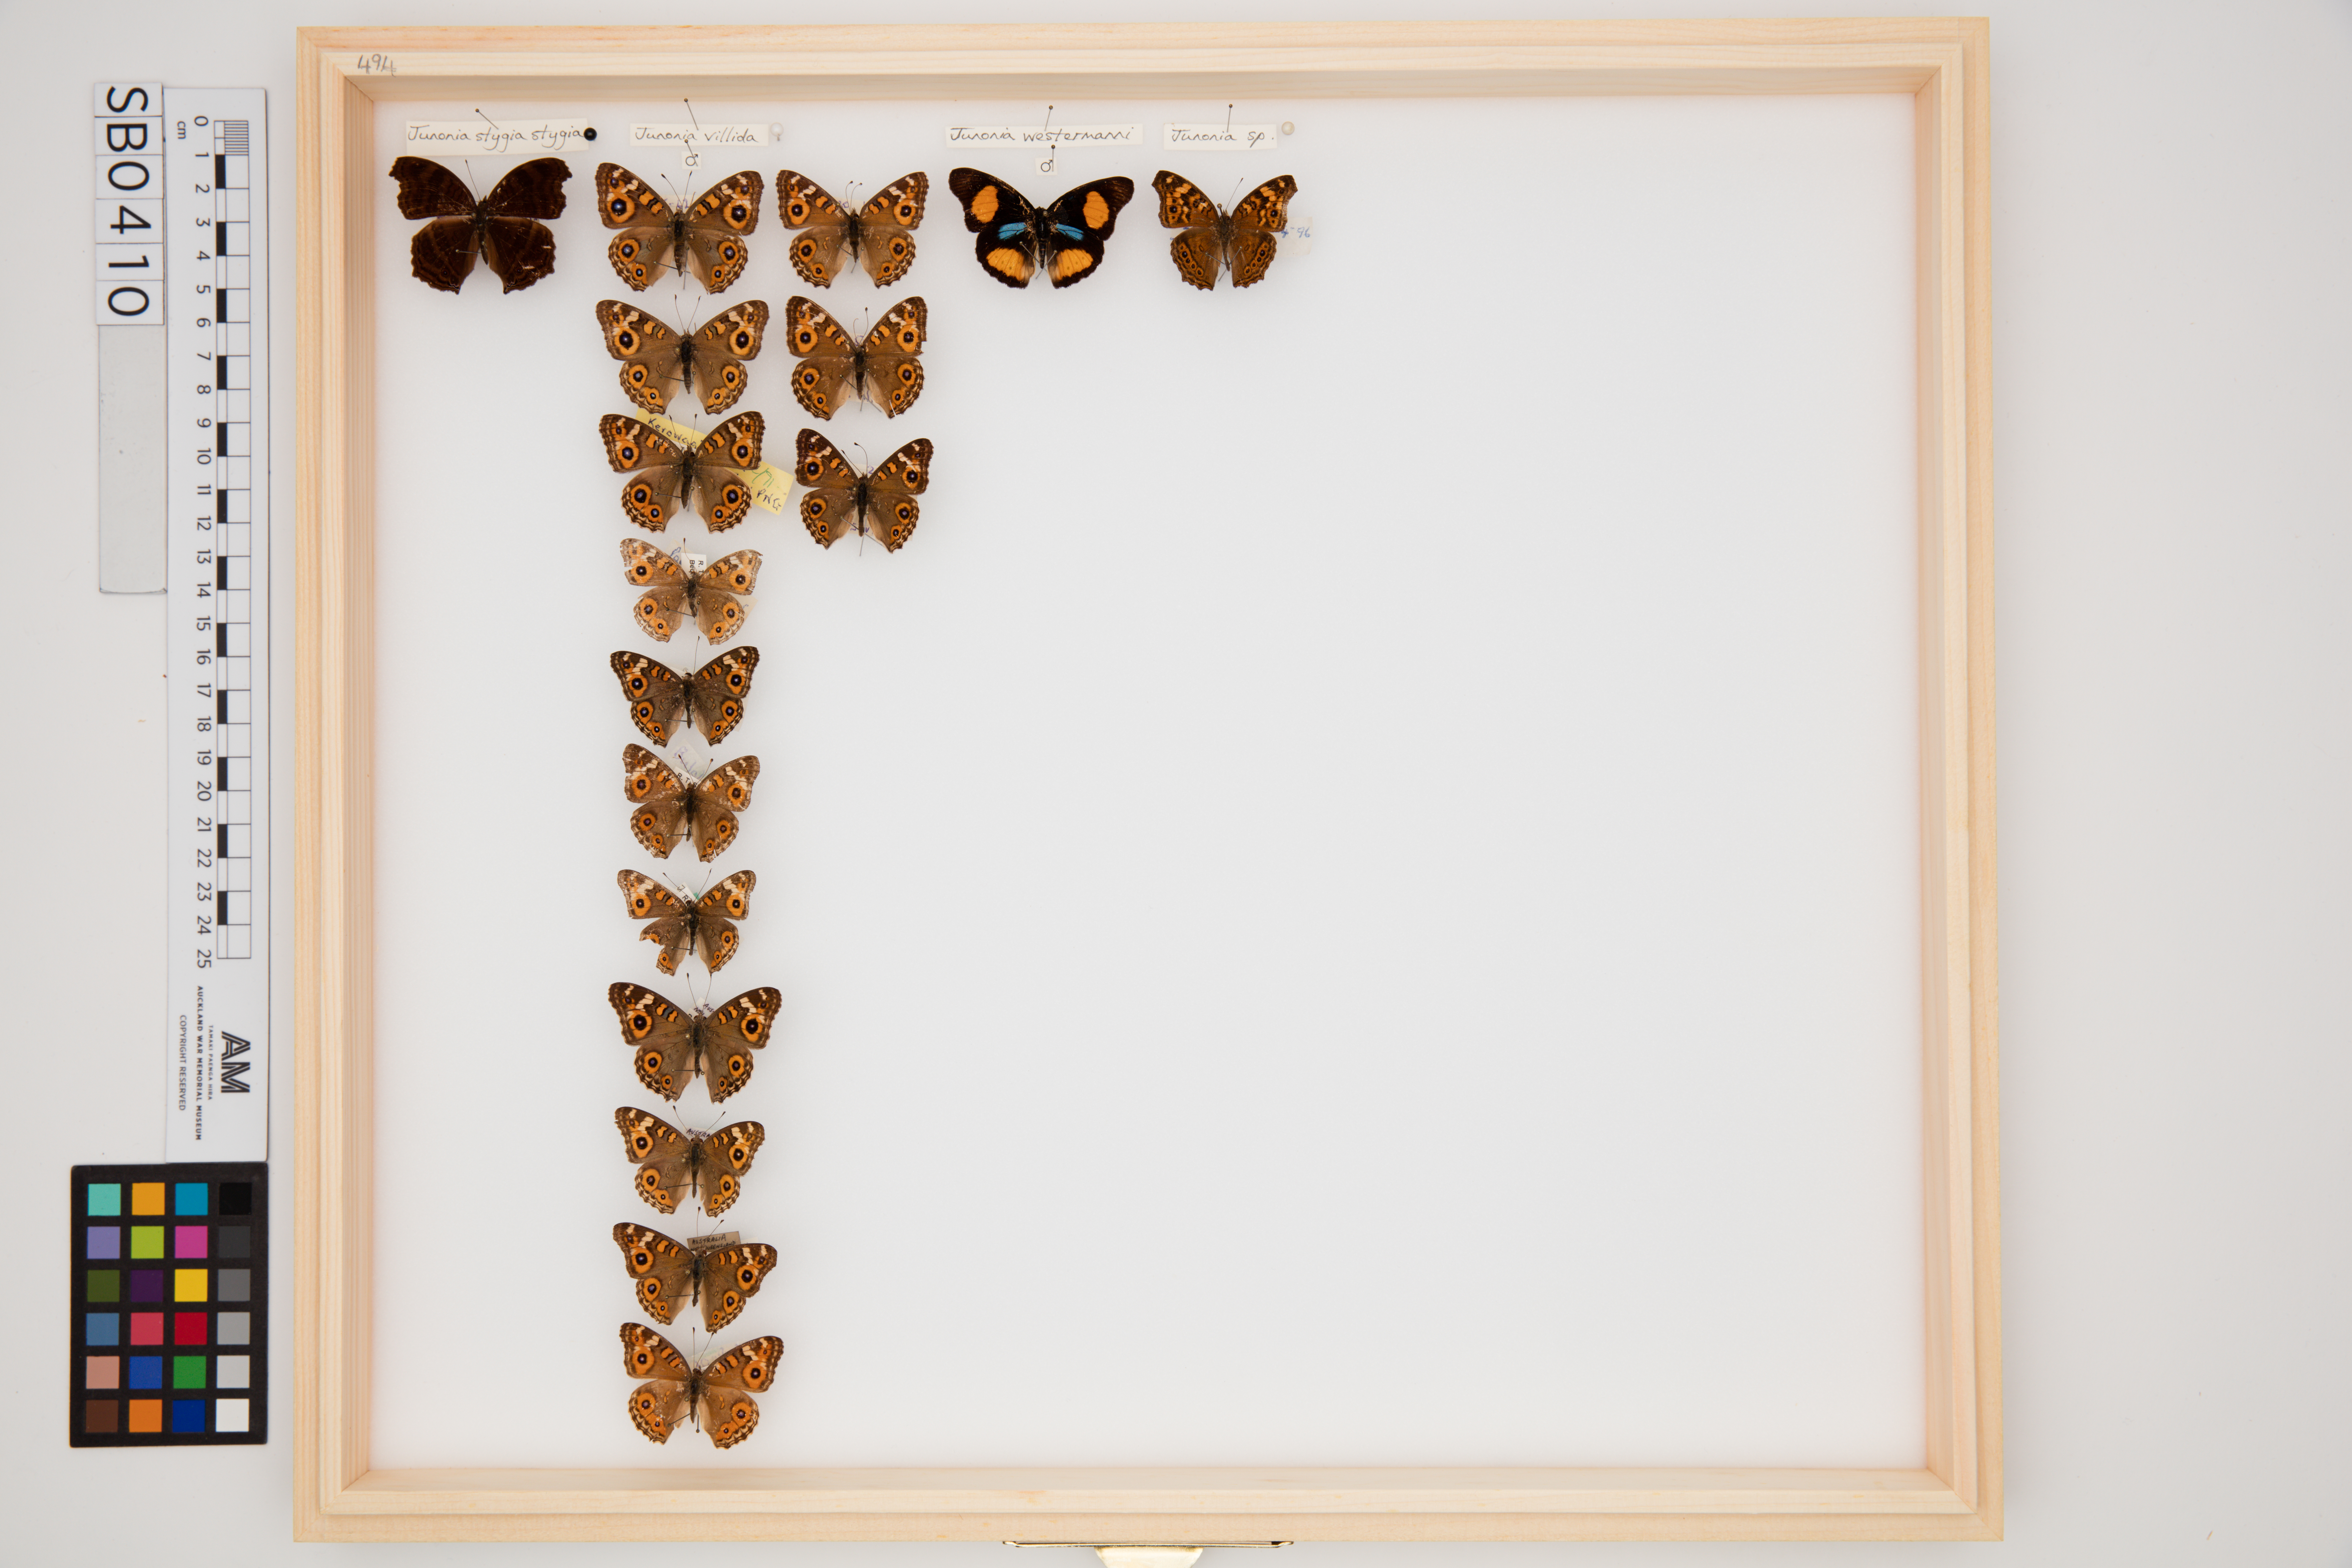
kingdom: Animalia
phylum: Arthropoda
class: Insecta
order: Lepidoptera
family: Nymphalidae
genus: Junonia
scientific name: Junonia villida
